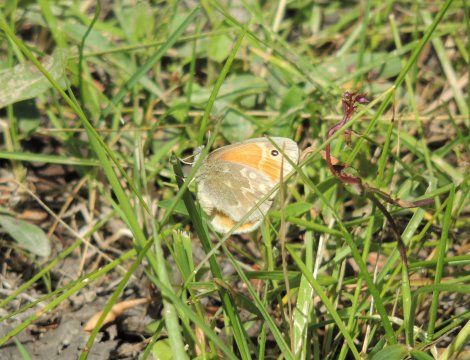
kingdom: Animalia
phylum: Arthropoda
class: Insecta
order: Lepidoptera
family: Nymphalidae
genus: Coenonympha
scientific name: Coenonympha tullia
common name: Large Heath
